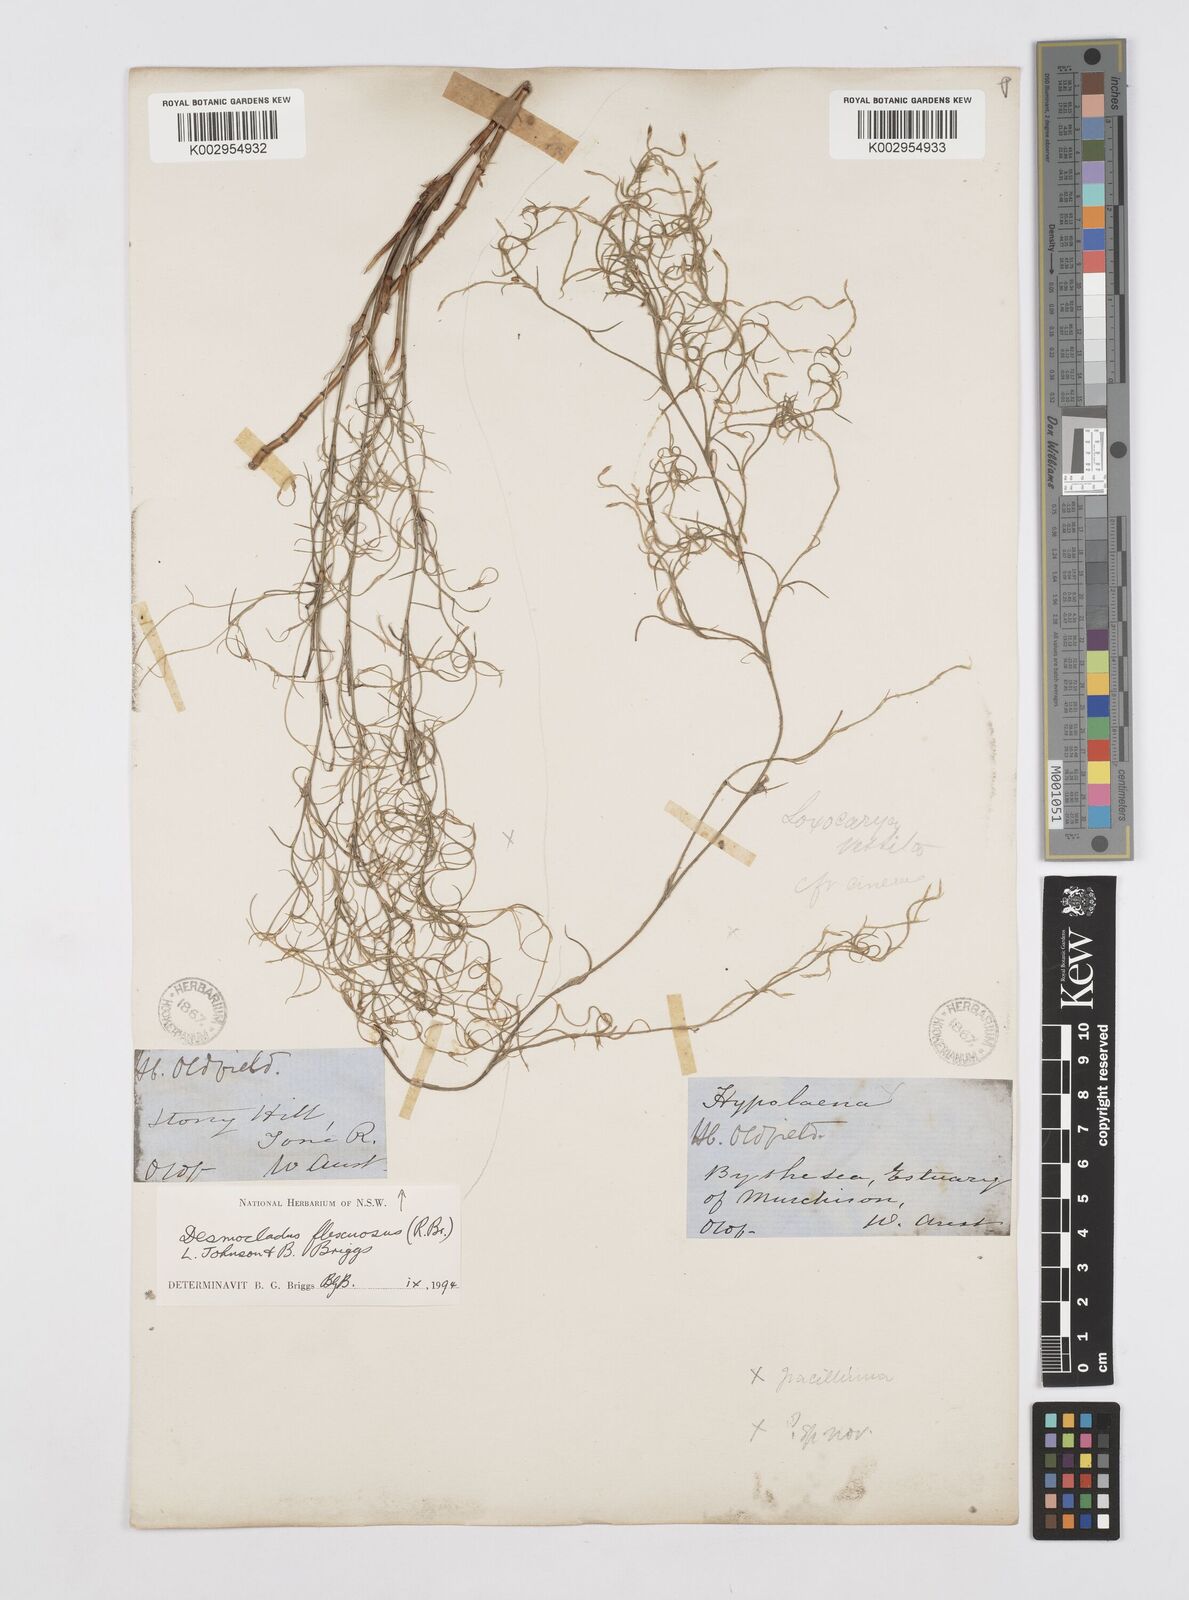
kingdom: Plantae
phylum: Tracheophyta
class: Liliopsida
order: Poales
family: Restionaceae
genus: Desmocladus
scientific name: Desmocladus flexuosus
